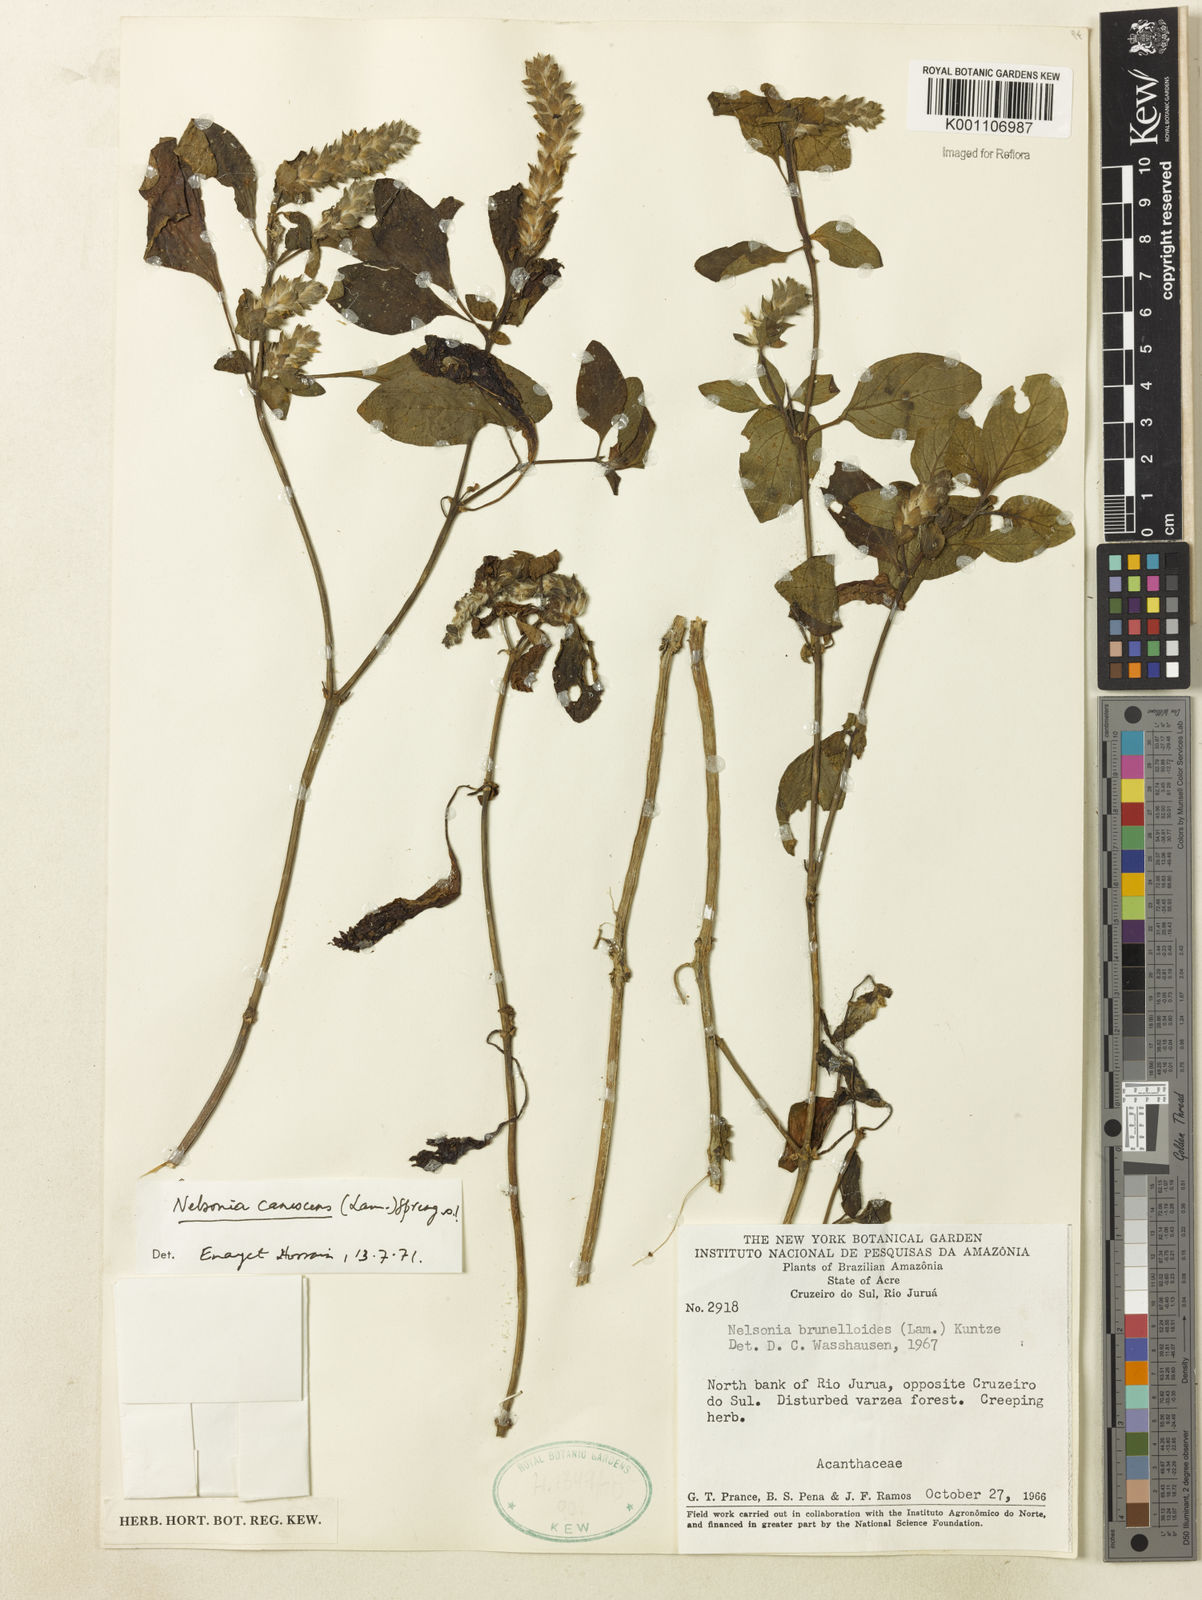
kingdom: Plantae
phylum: Tracheophyta
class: Magnoliopsida
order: Lamiales
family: Acanthaceae
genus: Nelsonia
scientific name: Nelsonia canescens
